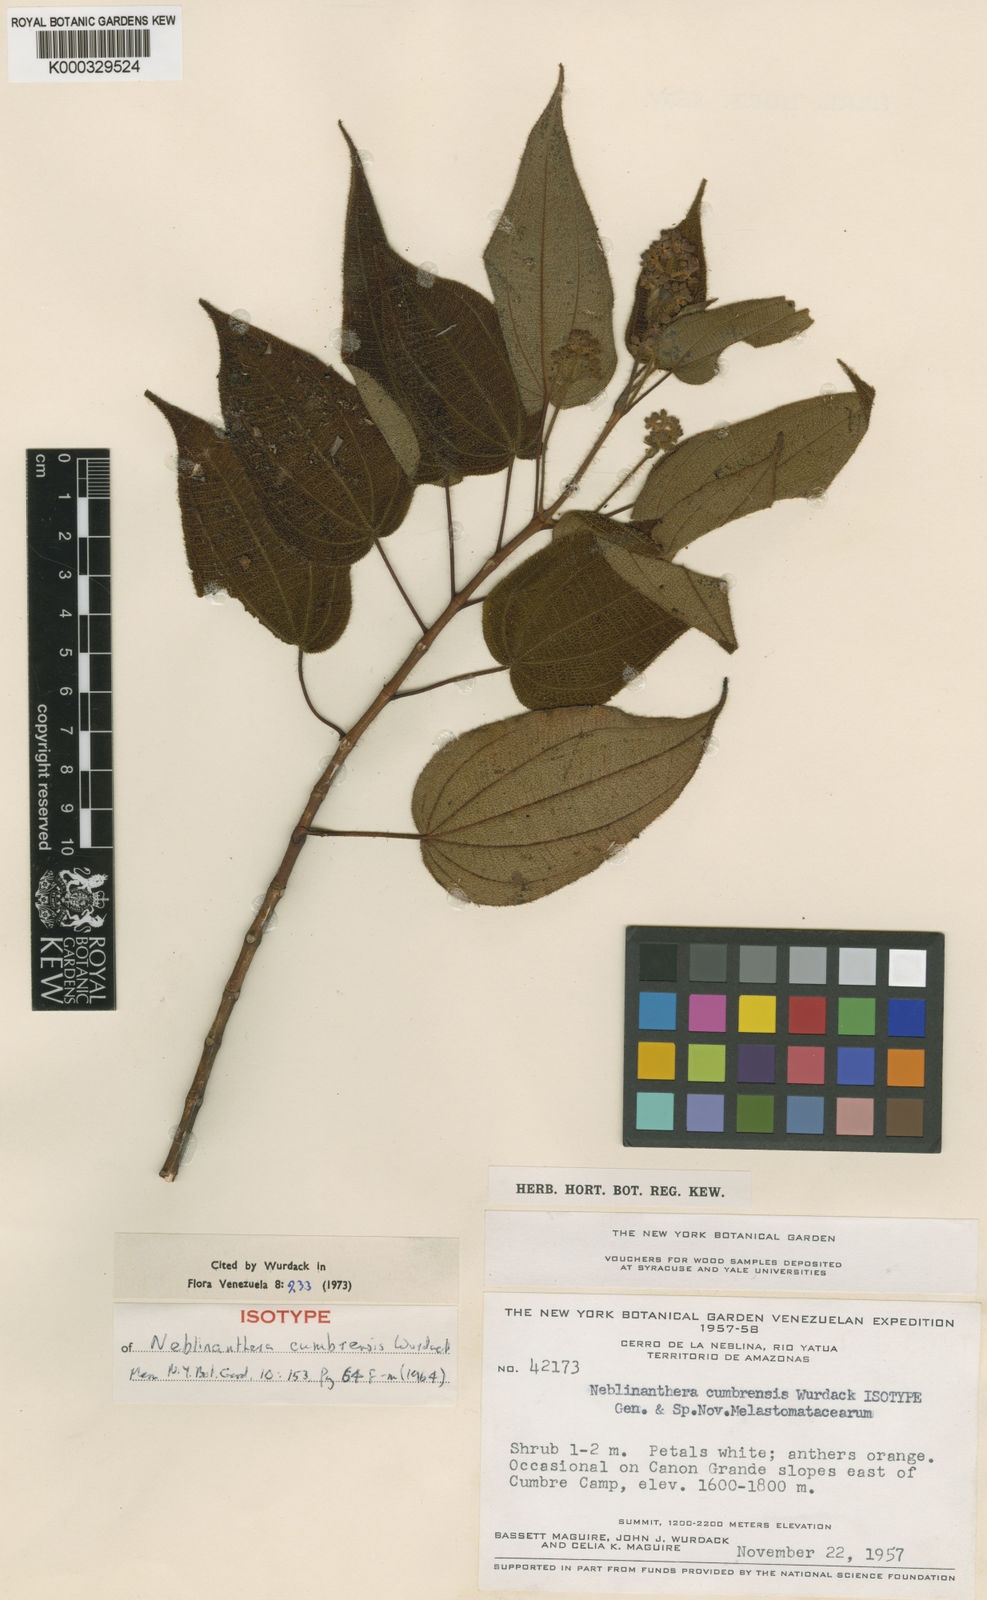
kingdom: Plantae
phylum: Tracheophyta
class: Magnoliopsida
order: Myrtales
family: Melastomataceae
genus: Neblinanthera
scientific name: Neblinanthera cumbrensis
